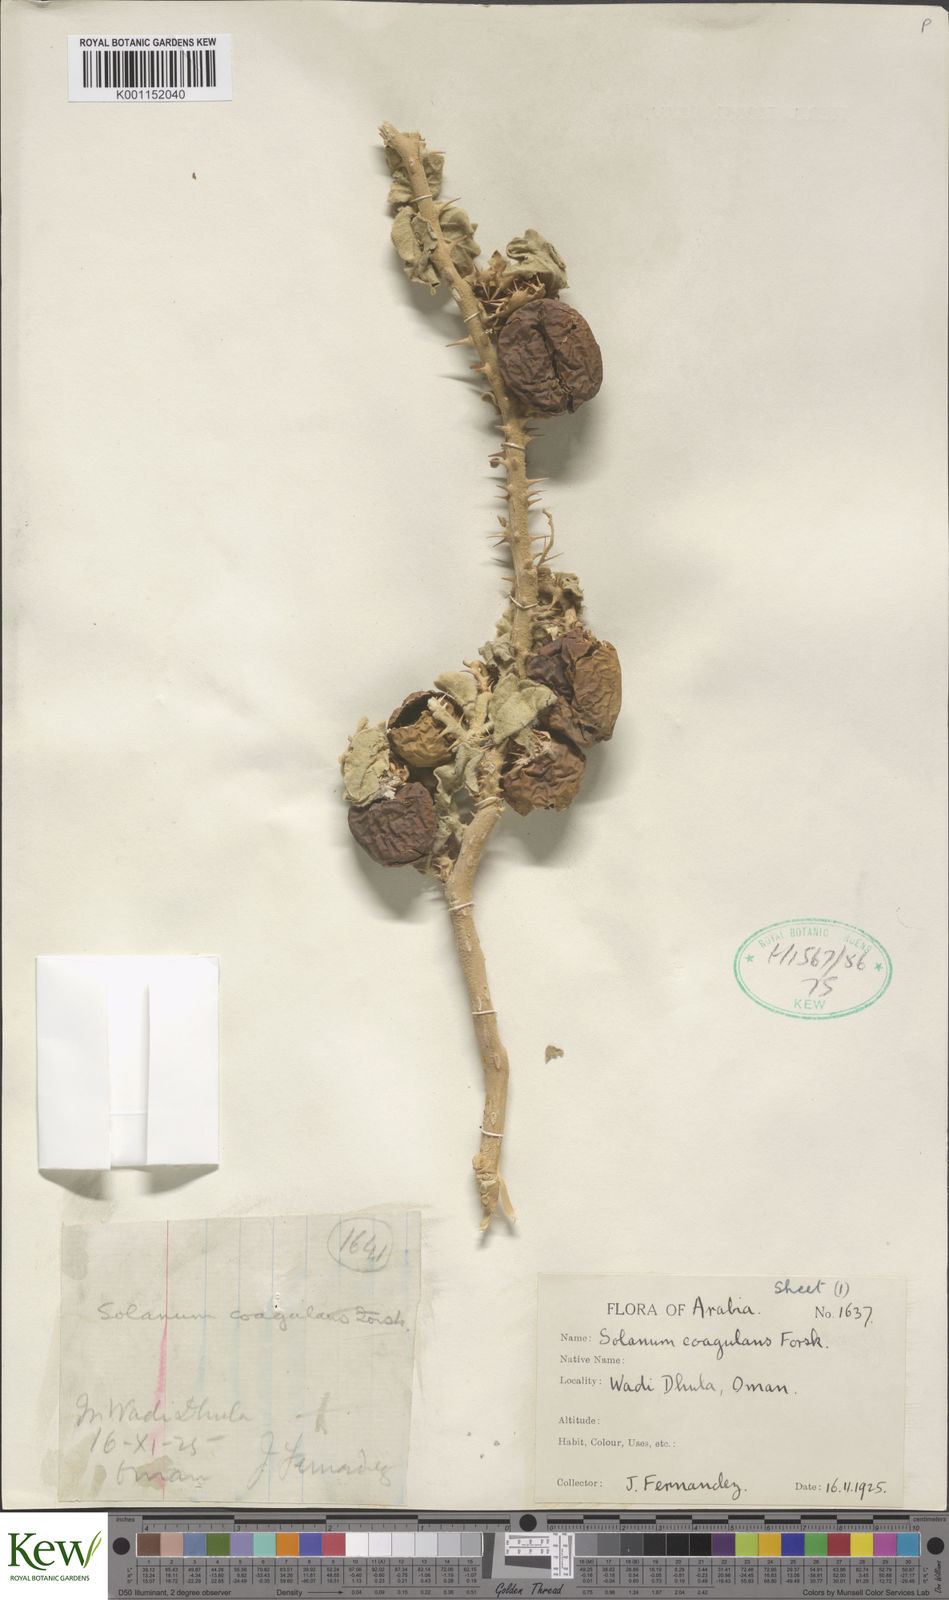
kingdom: Plantae
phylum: Tracheophyta
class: Magnoliopsida
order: Solanales
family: Solanaceae
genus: Solanum
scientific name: Solanum coagulans
